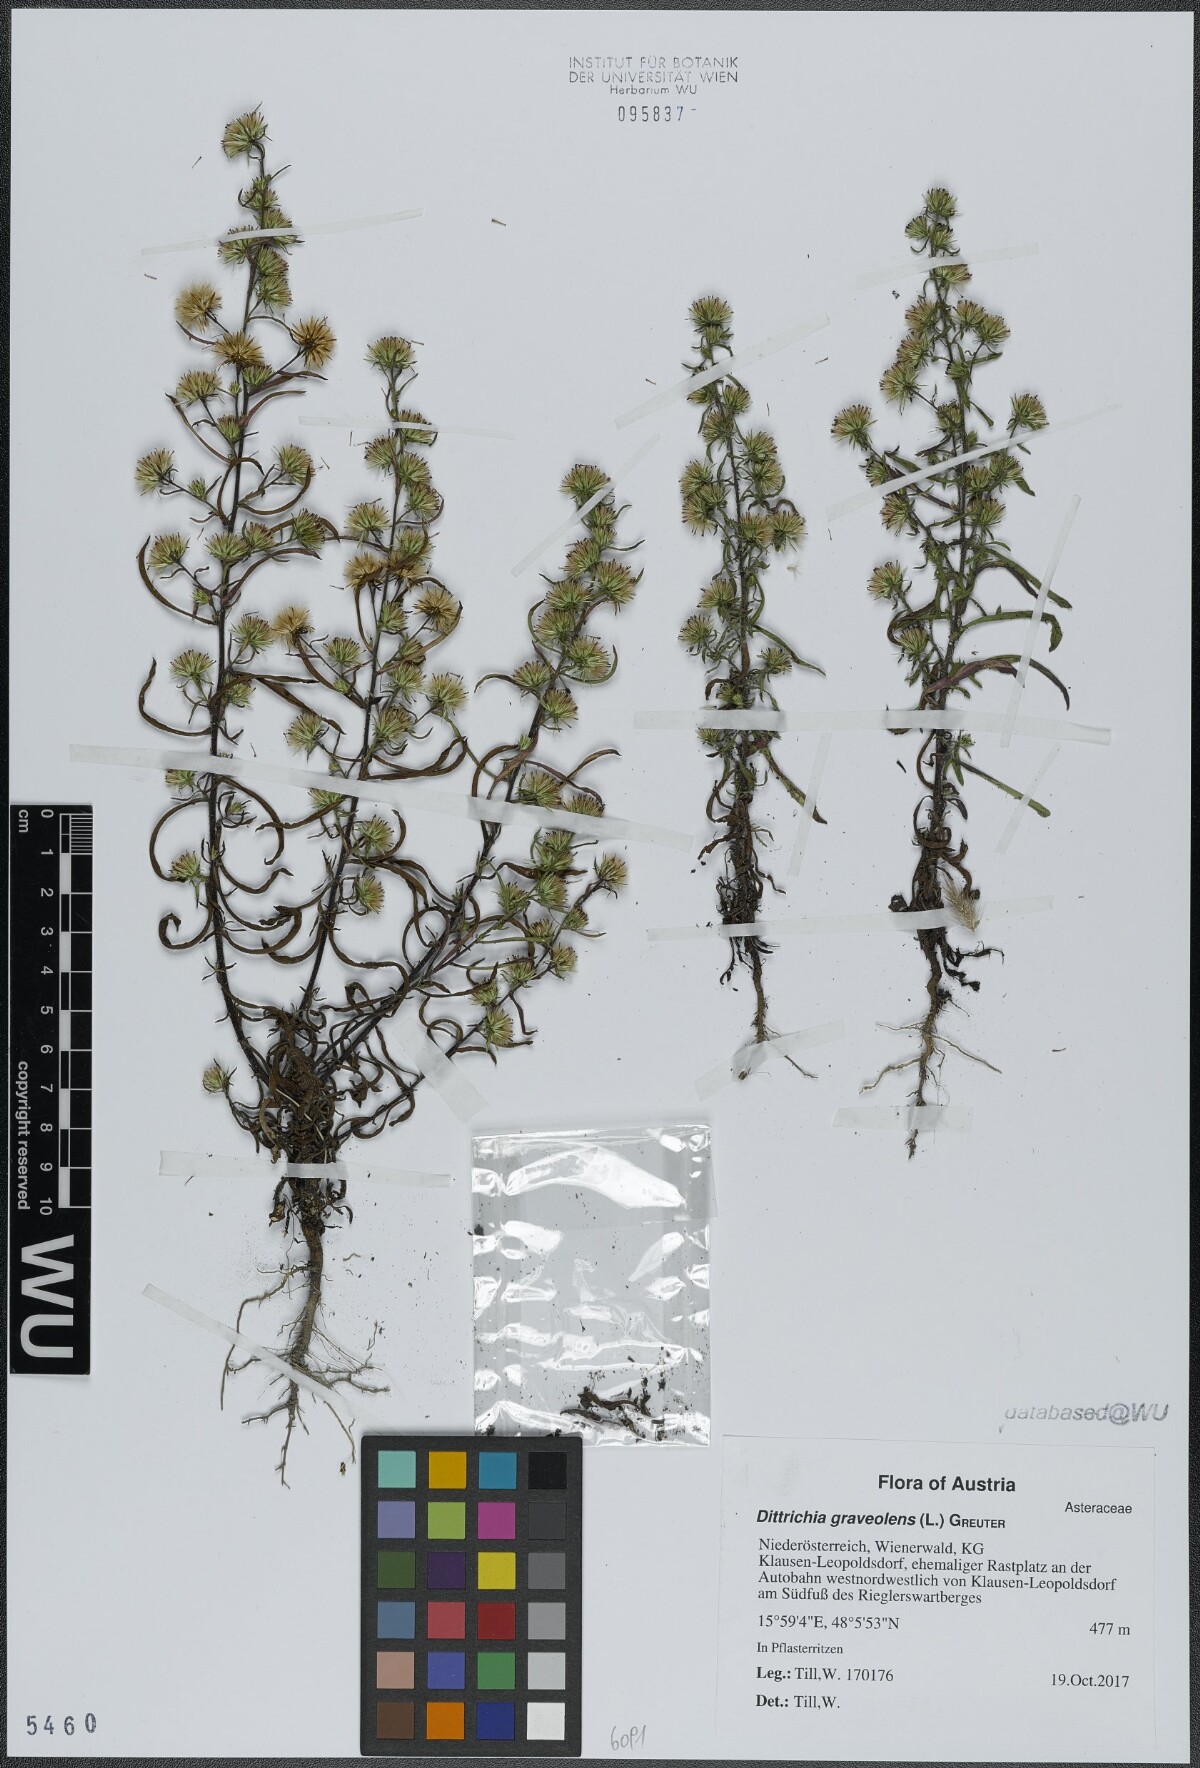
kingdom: Plantae
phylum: Tracheophyta
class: Magnoliopsida
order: Asterales
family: Asteraceae
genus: Dittrichia
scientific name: Dittrichia graveolens
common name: Stinking fleabane
